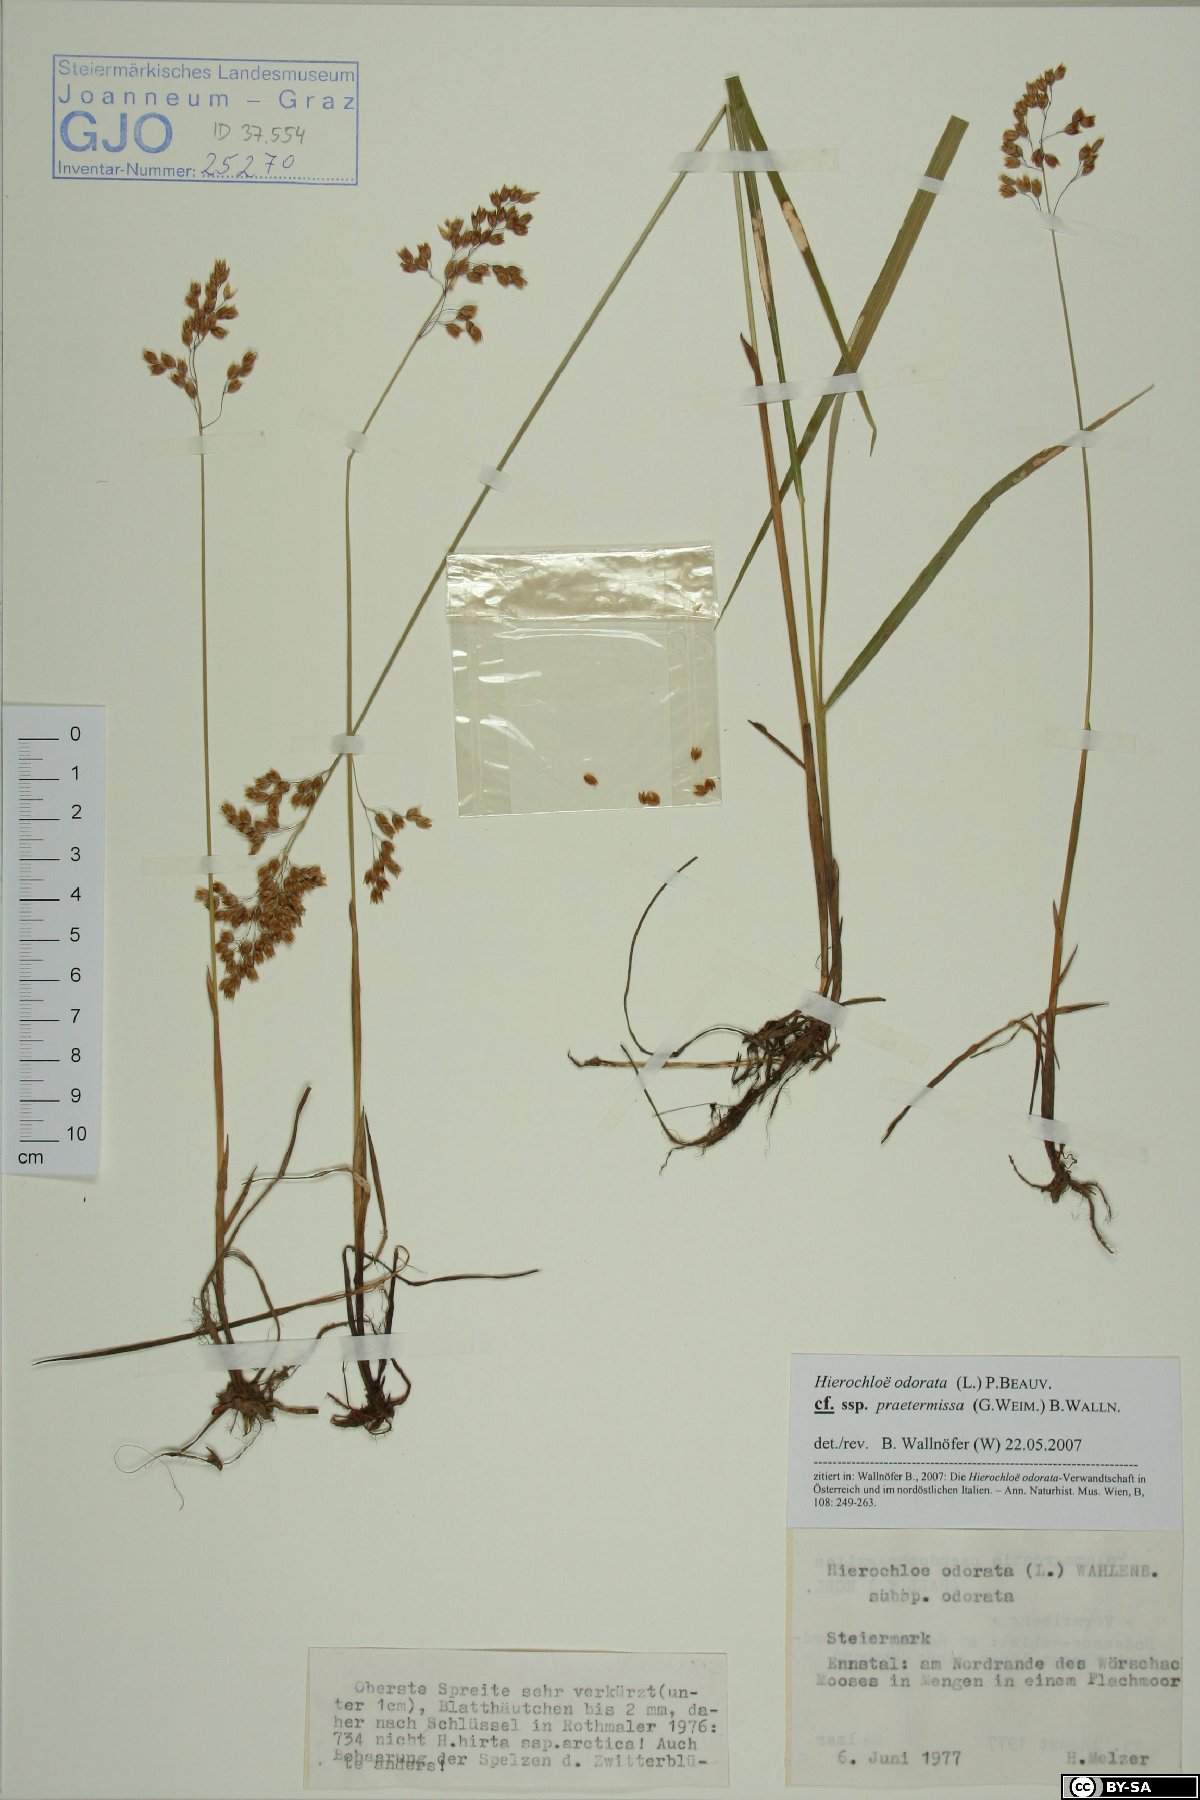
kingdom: Plantae
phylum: Tracheophyta
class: Liliopsida
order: Poales
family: Poaceae
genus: Anthoxanthum
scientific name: Anthoxanthum nitens
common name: Holy grass
